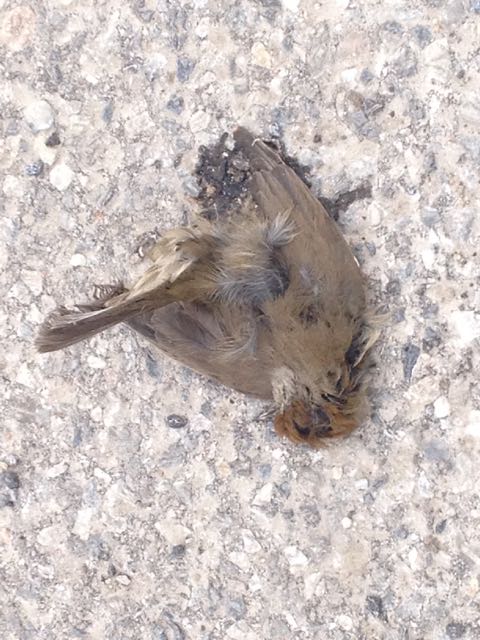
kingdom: Animalia
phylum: Chordata
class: Aves
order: Passeriformes
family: Sylviidae
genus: Sylvia
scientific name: Sylvia atricapilla
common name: Eurasian blackcap
